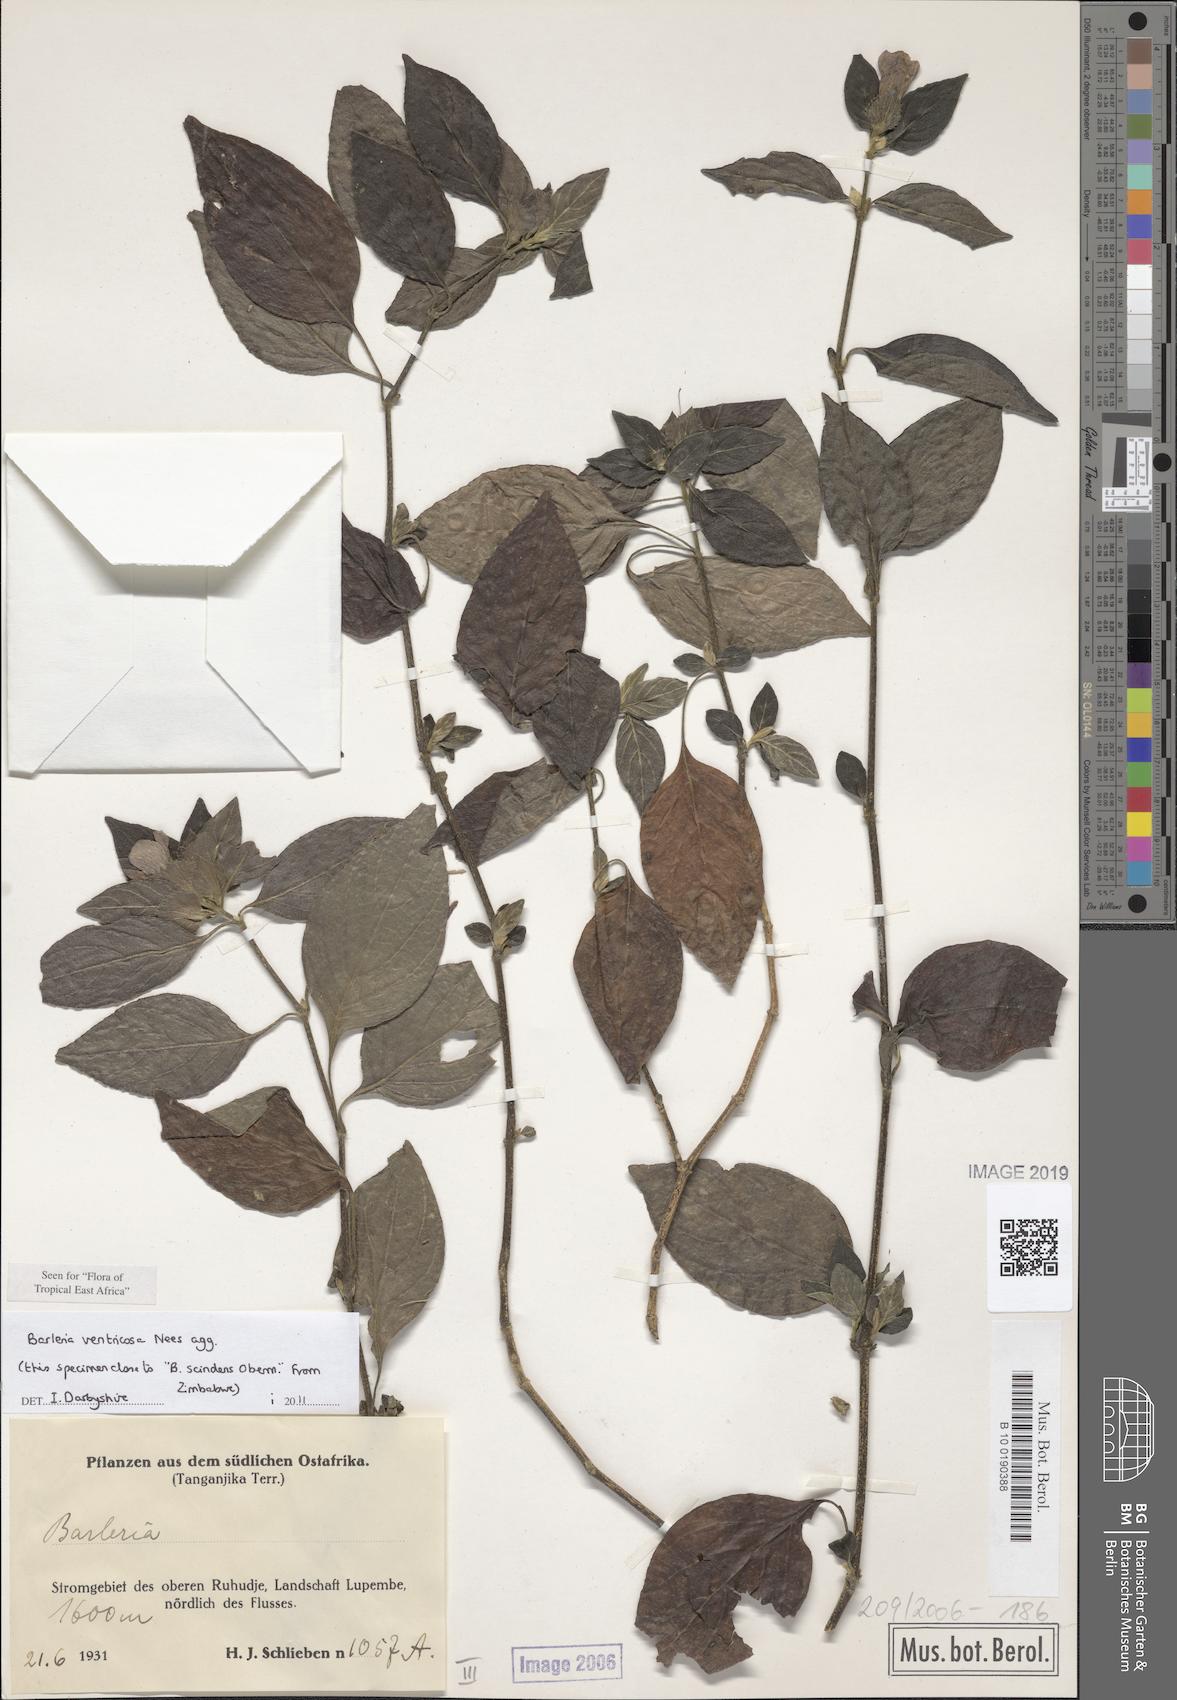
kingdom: Plantae
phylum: Tracheophyta
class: Magnoliopsida
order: Lamiales
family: Acanthaceae
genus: Barleria
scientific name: Barleria ventricosa
